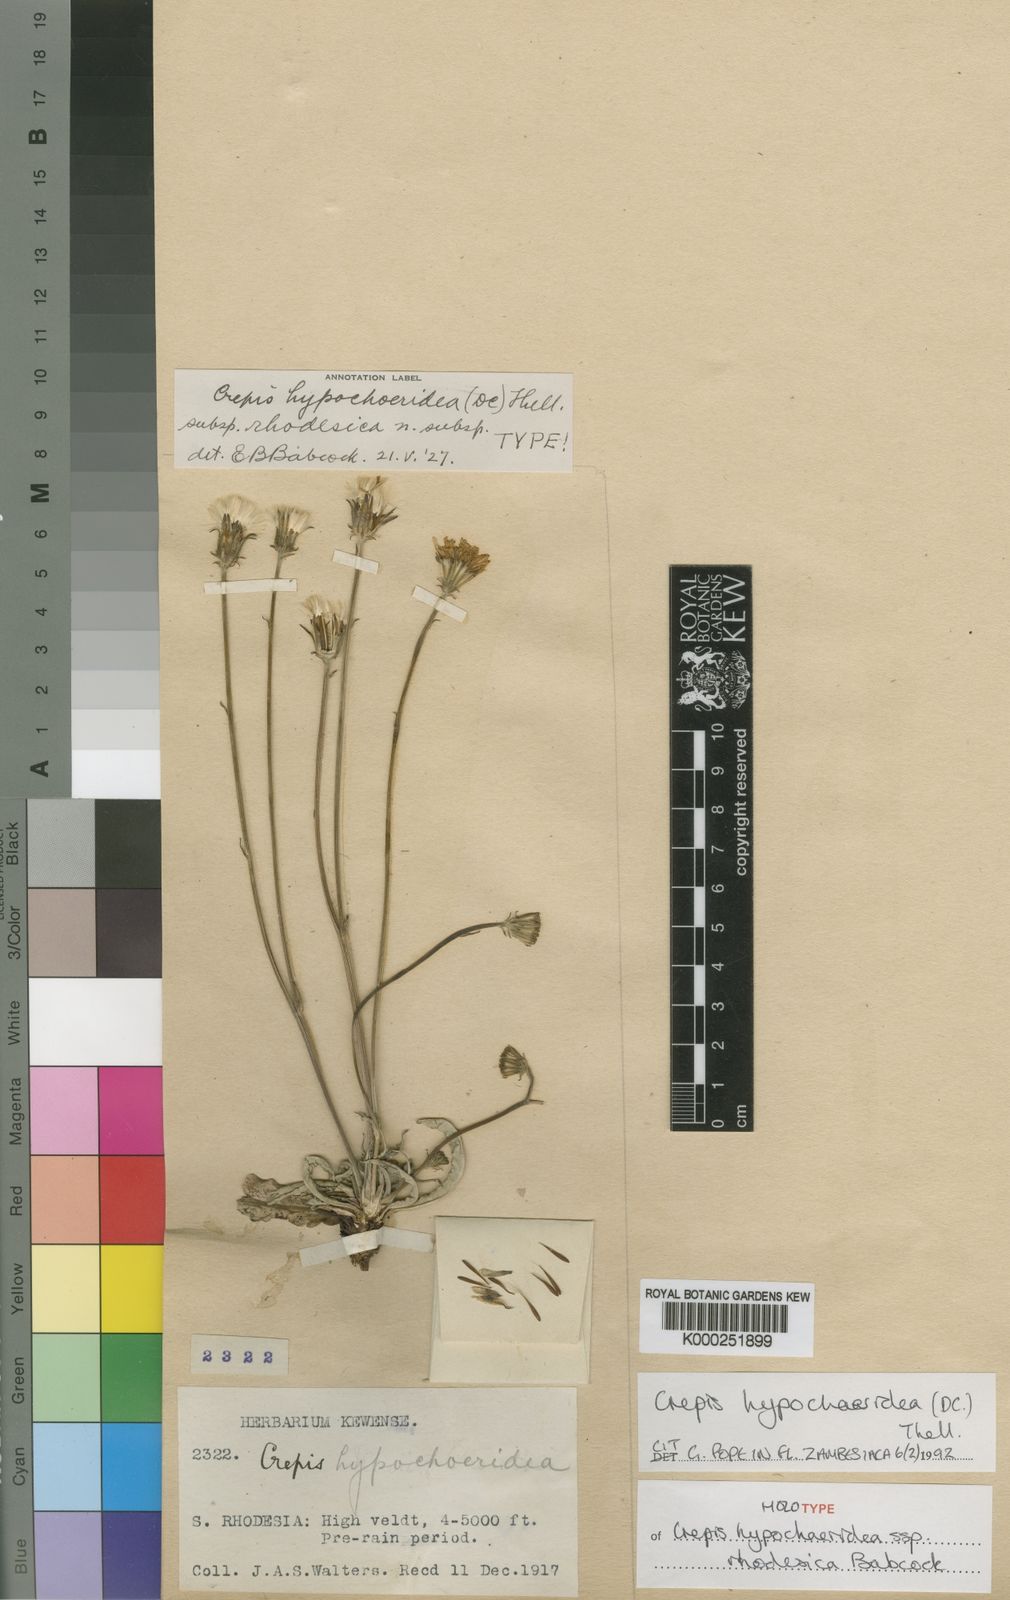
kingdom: Plantae
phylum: Tracheophyta
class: Magnoliopsida
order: Asterales
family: Asteraceae
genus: Crepis
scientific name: Crepis hypochoeridea
